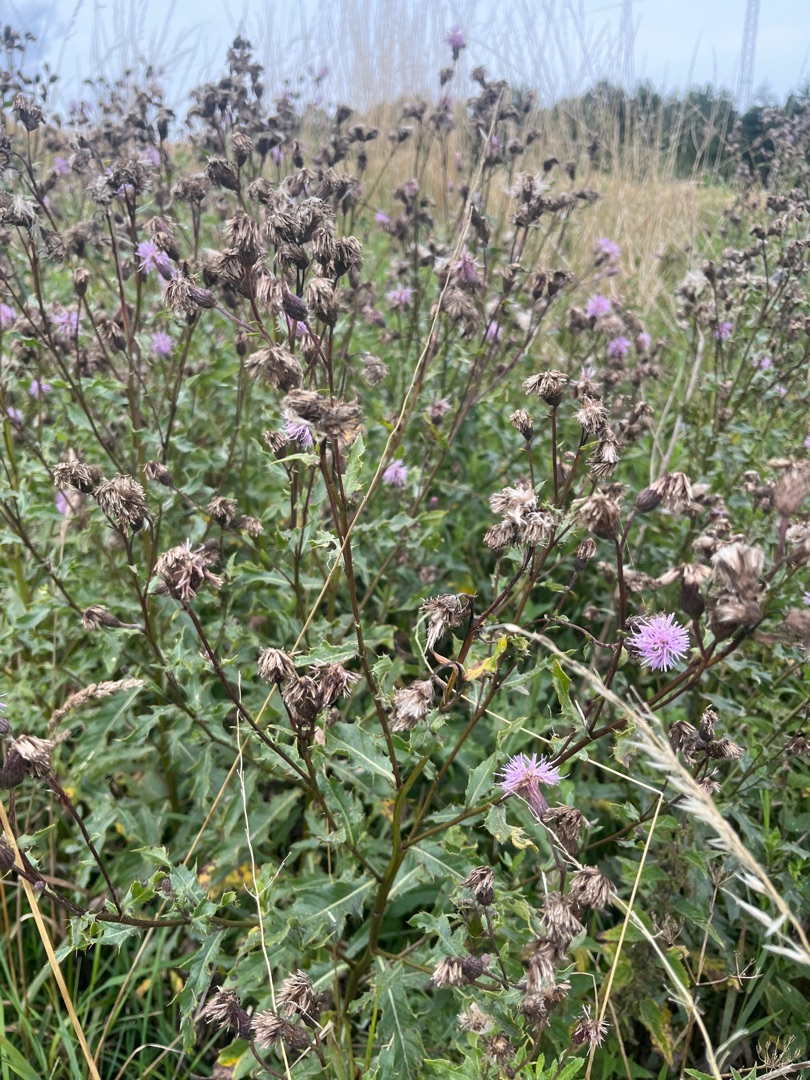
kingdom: Plantae
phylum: Tracheophyta
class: Magnoliopsida
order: Asterales
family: Asteraceae
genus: Cirsium
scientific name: Cirsium arvense
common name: Ager-tidsel
